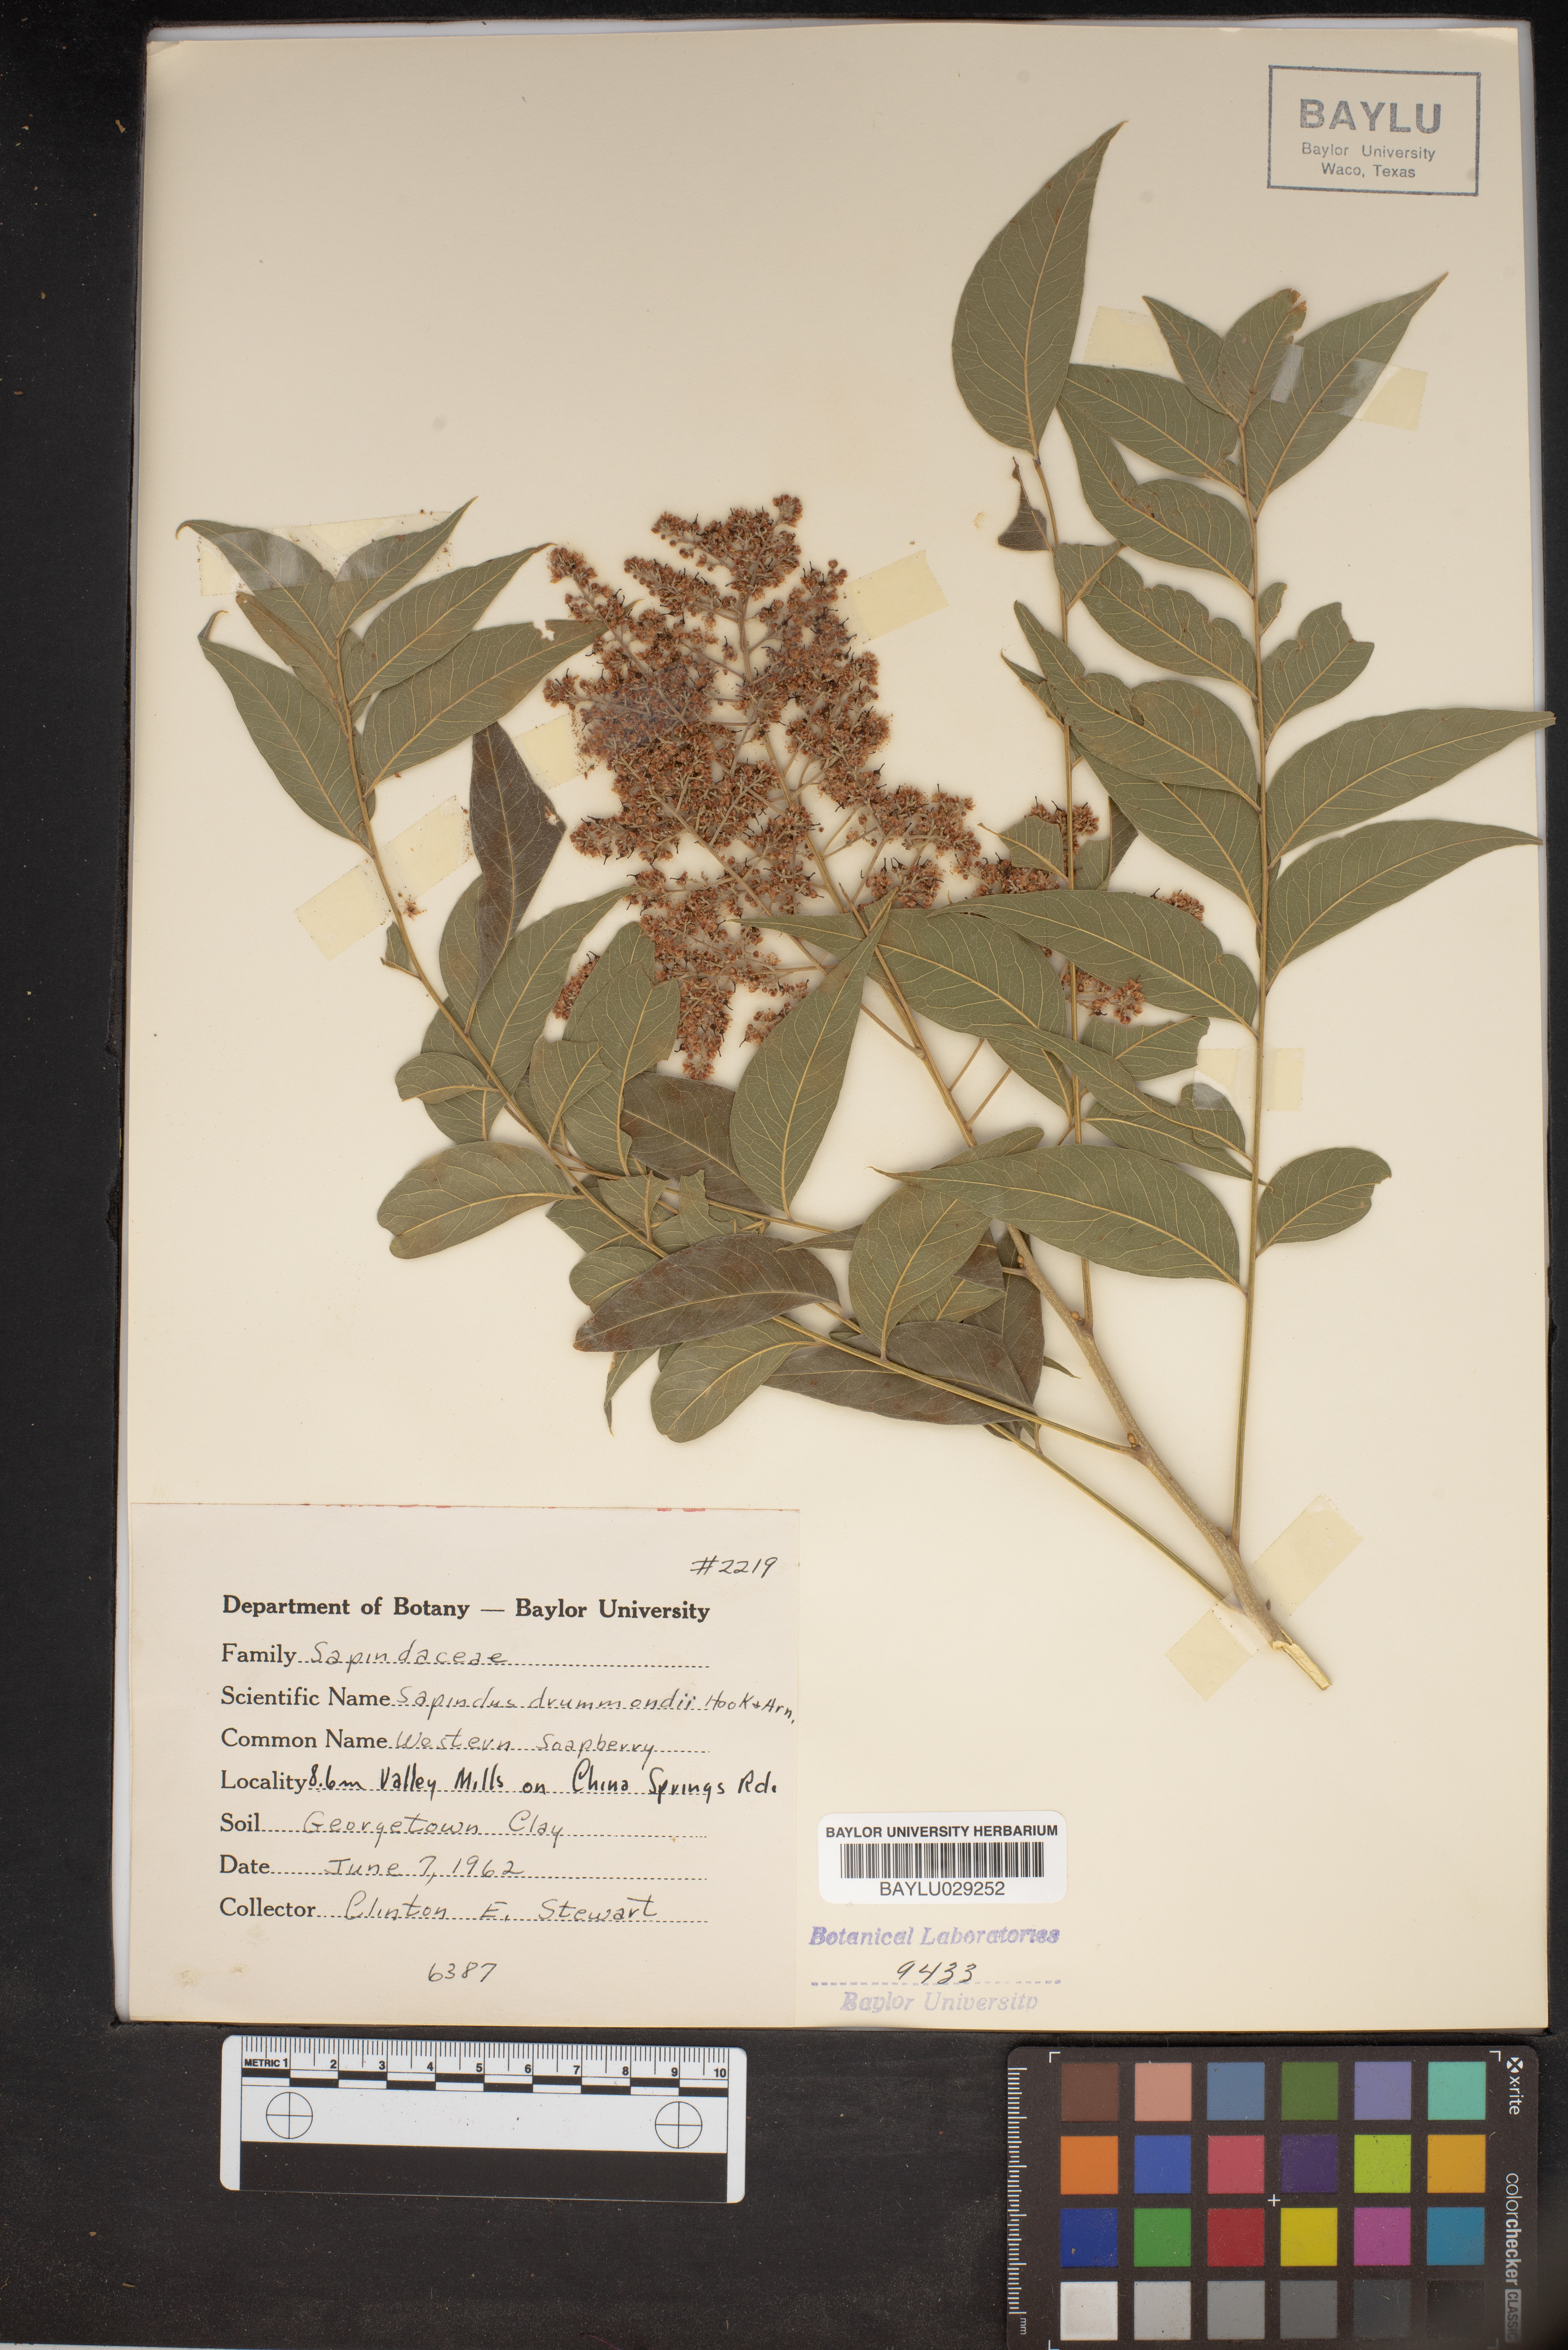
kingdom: Plantae
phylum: Tracheophyta
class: Magnoliopsida
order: Sapindales
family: Sapindaceae
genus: Sapindus
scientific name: Sapindus drummondii
